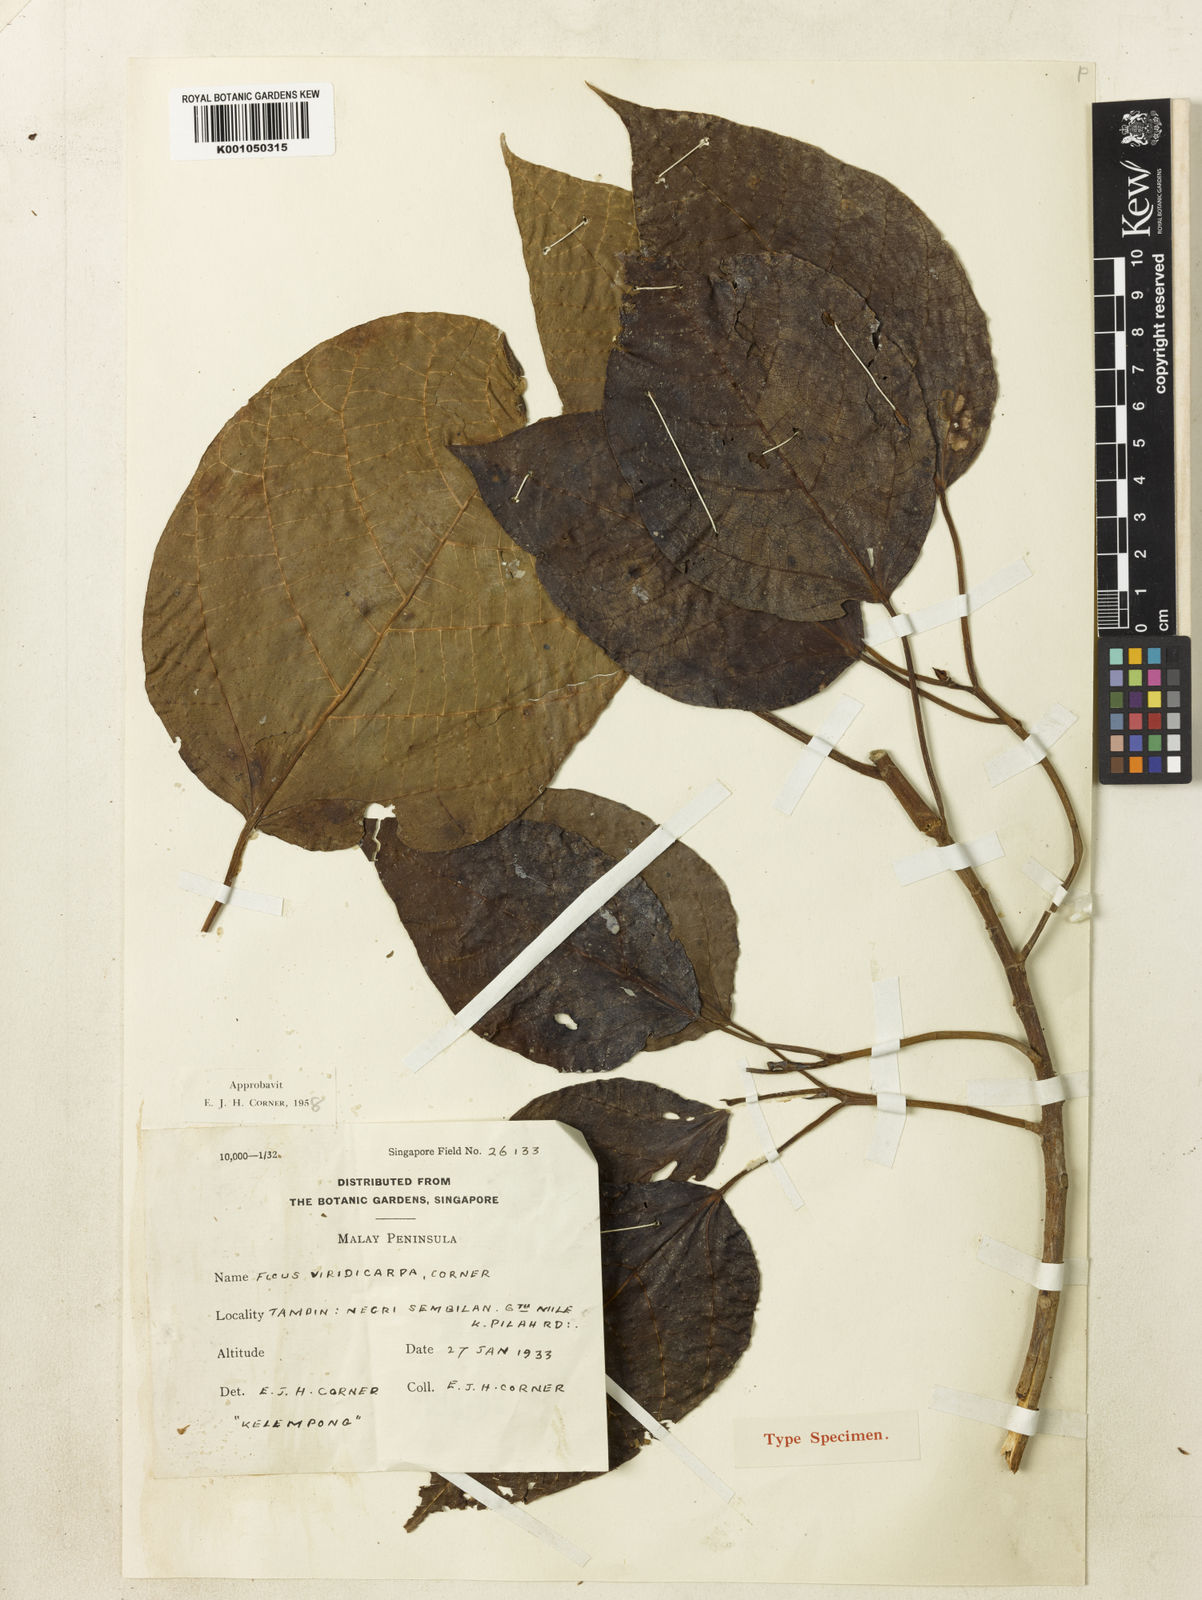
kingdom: Plantae
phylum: Tracheophyta
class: Magnoliopsida
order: Rosales
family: Moraceae
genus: Ficus
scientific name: Ficus variegata
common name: Variegated fig
